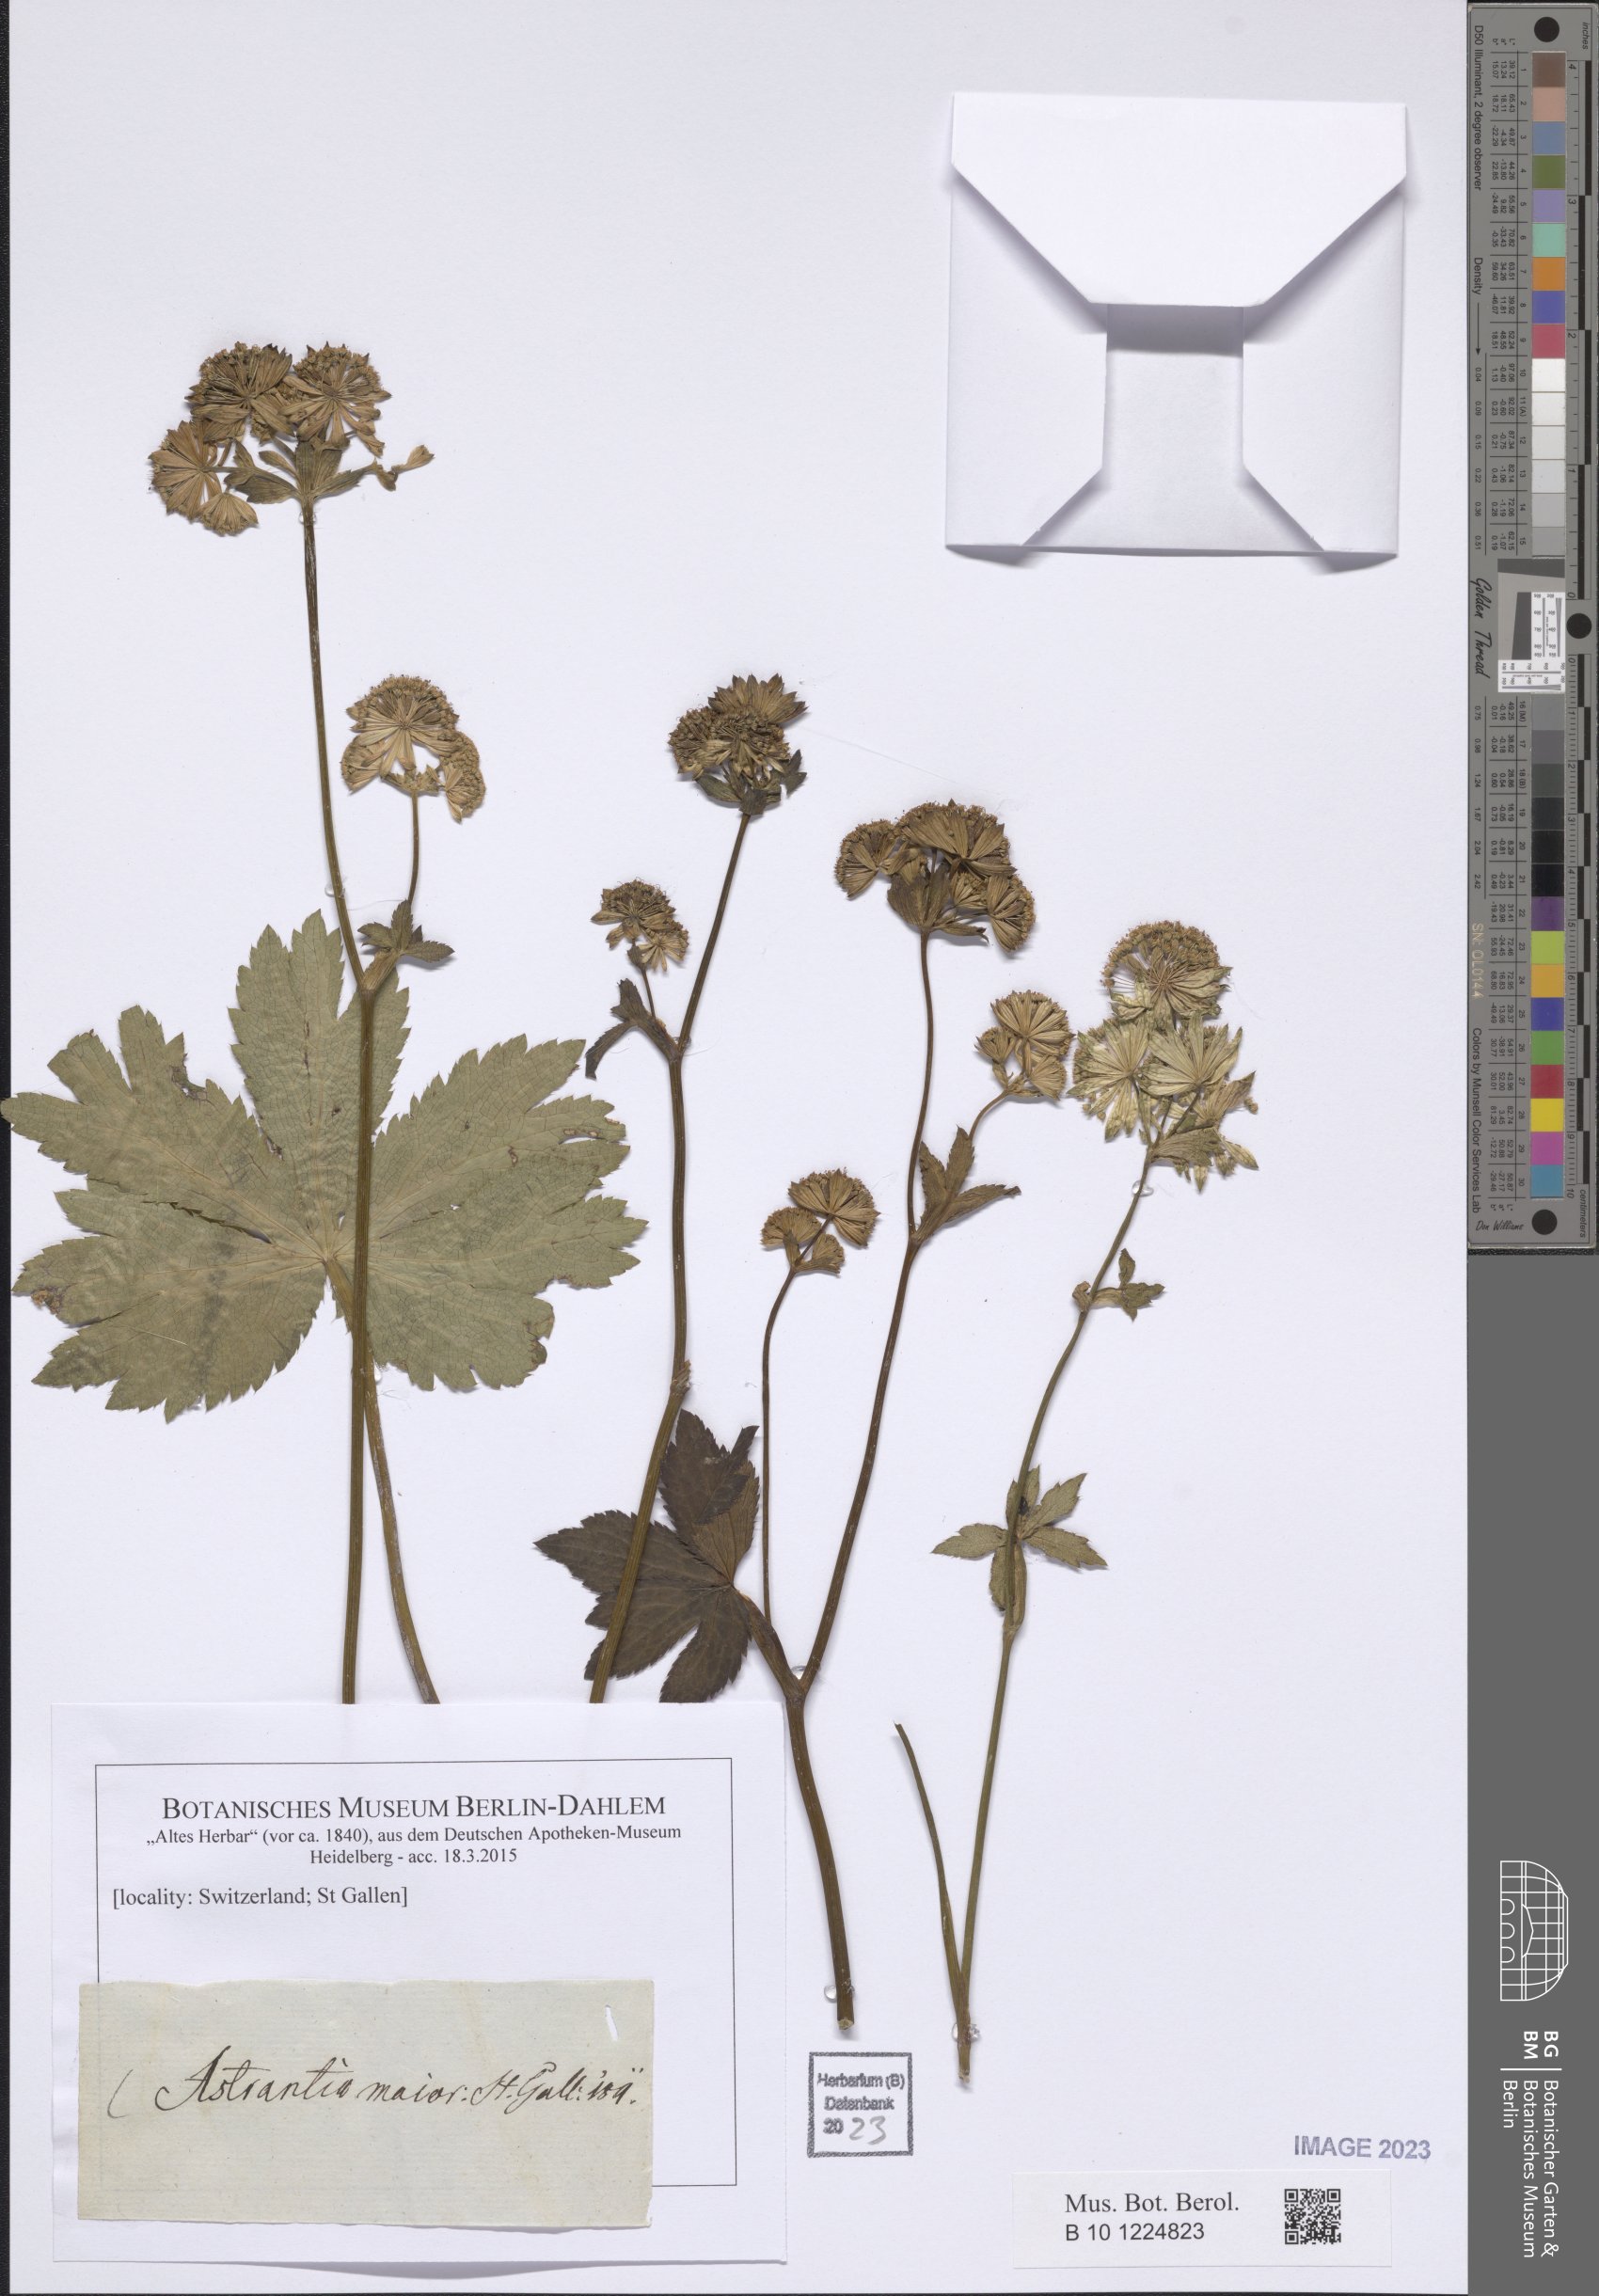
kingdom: Plantae
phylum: Tracheophyta
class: Magnoliopsida
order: Apiales
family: Apiaceae
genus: Astrantia
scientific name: Astrantia major
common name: Greater masterwort
